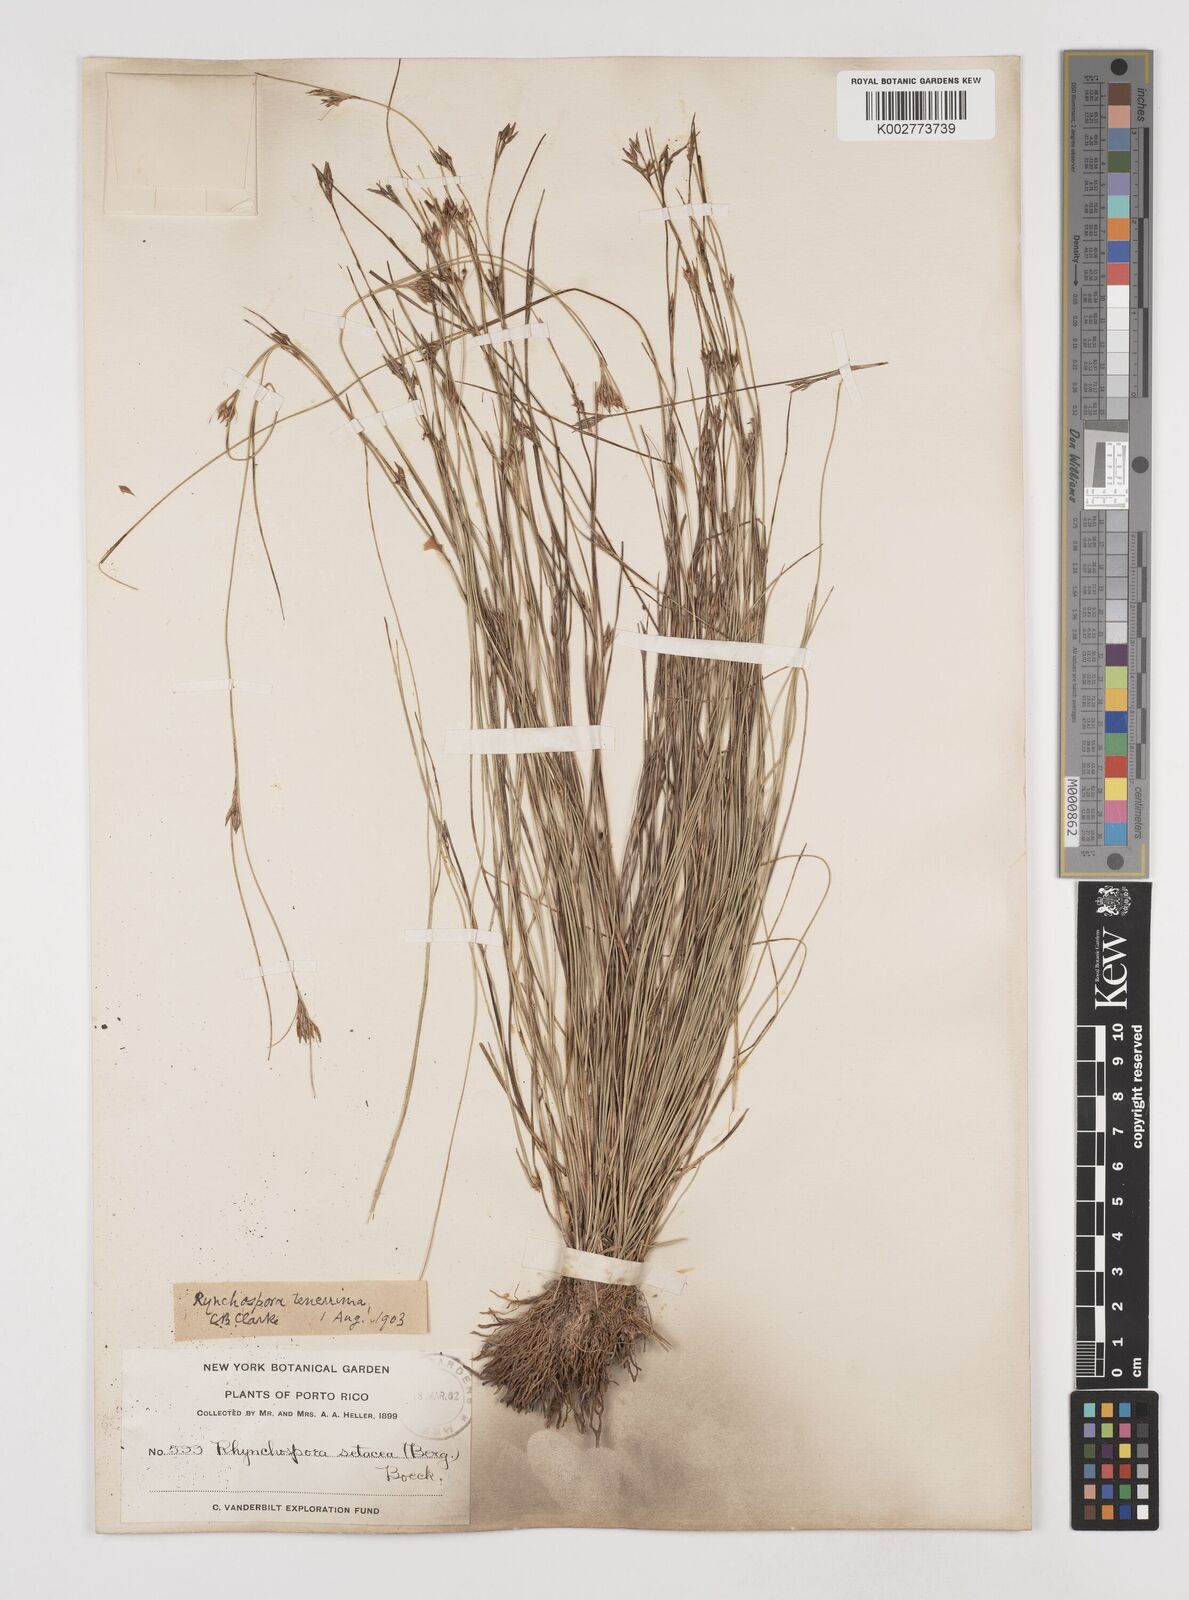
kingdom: Plantae
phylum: Tracheophyta
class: Liliopsida
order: Poales
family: Cyperaceae
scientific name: Cyperaceae
